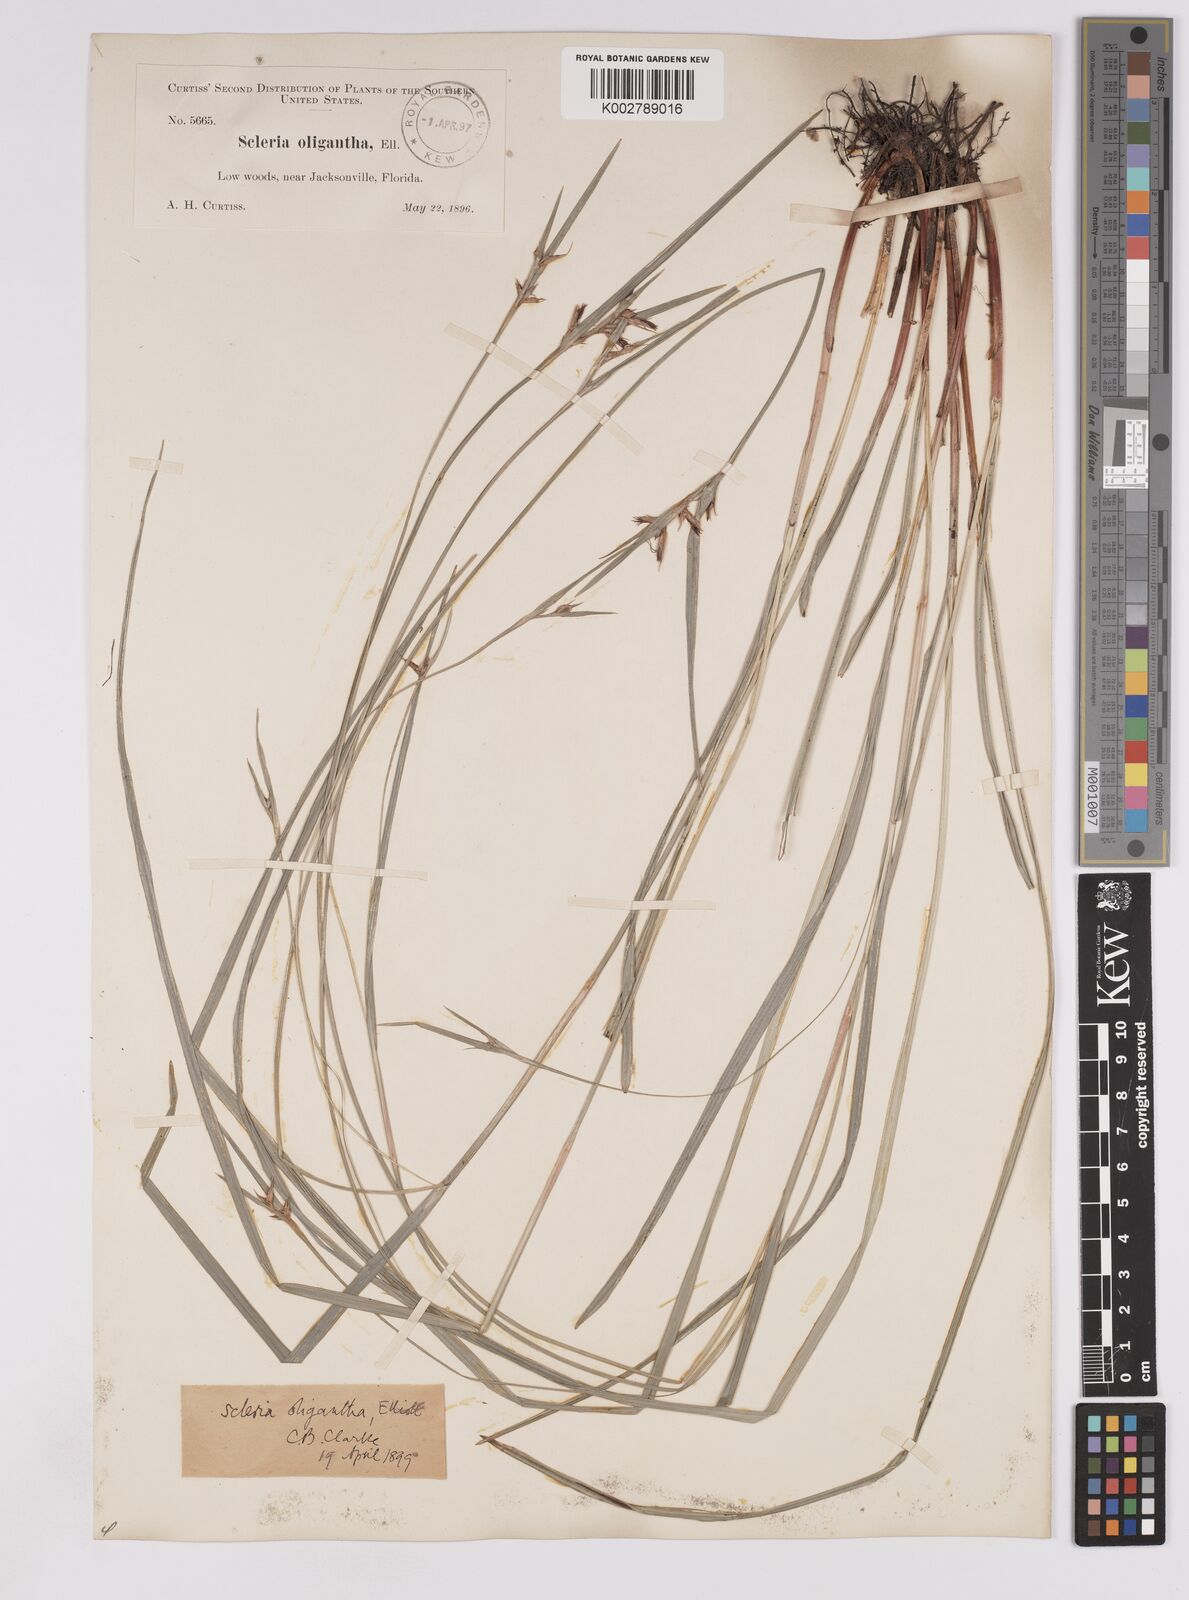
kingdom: Plantae
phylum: Tracheophyta
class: Liliopsida
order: Poales
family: Cyperaceae
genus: Scleria
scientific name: Scleria oligantha
